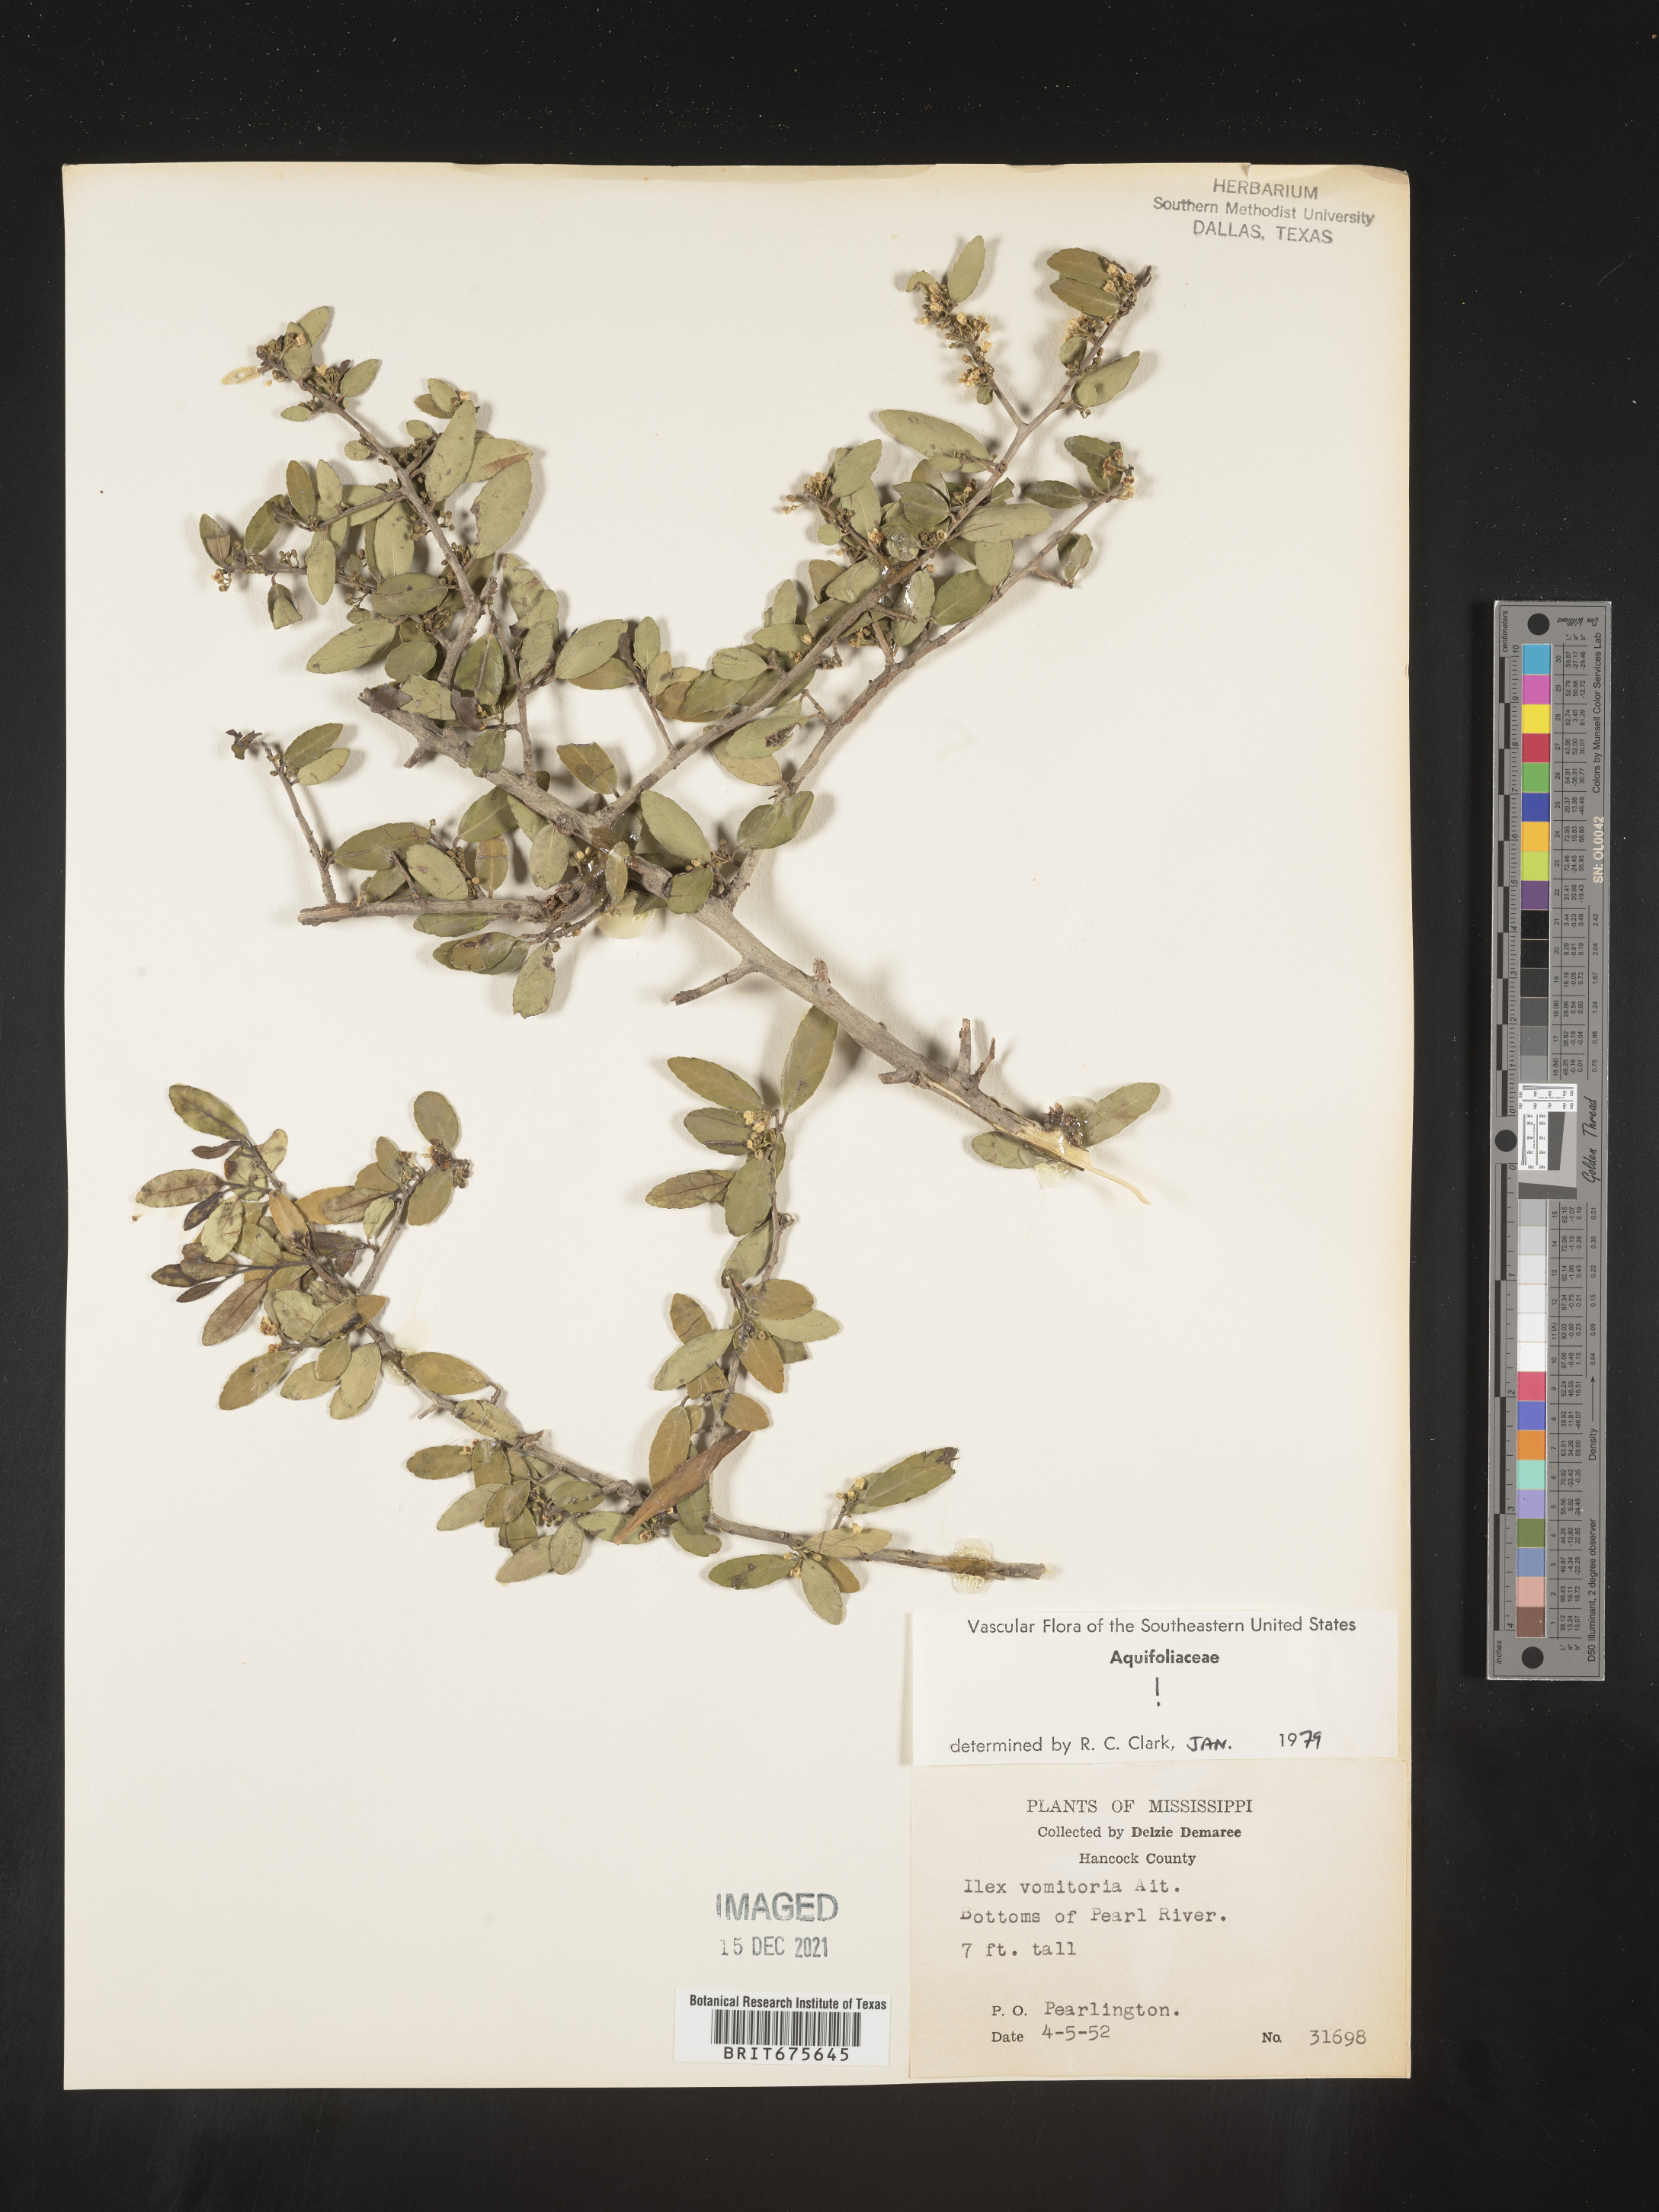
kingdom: Plantae
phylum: Tracheophyta
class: Magnoliopsida
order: Aquifoliales
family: Aquifoliaceae
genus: Ilex
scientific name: Ilex vomitoria
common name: Yaupon holly
